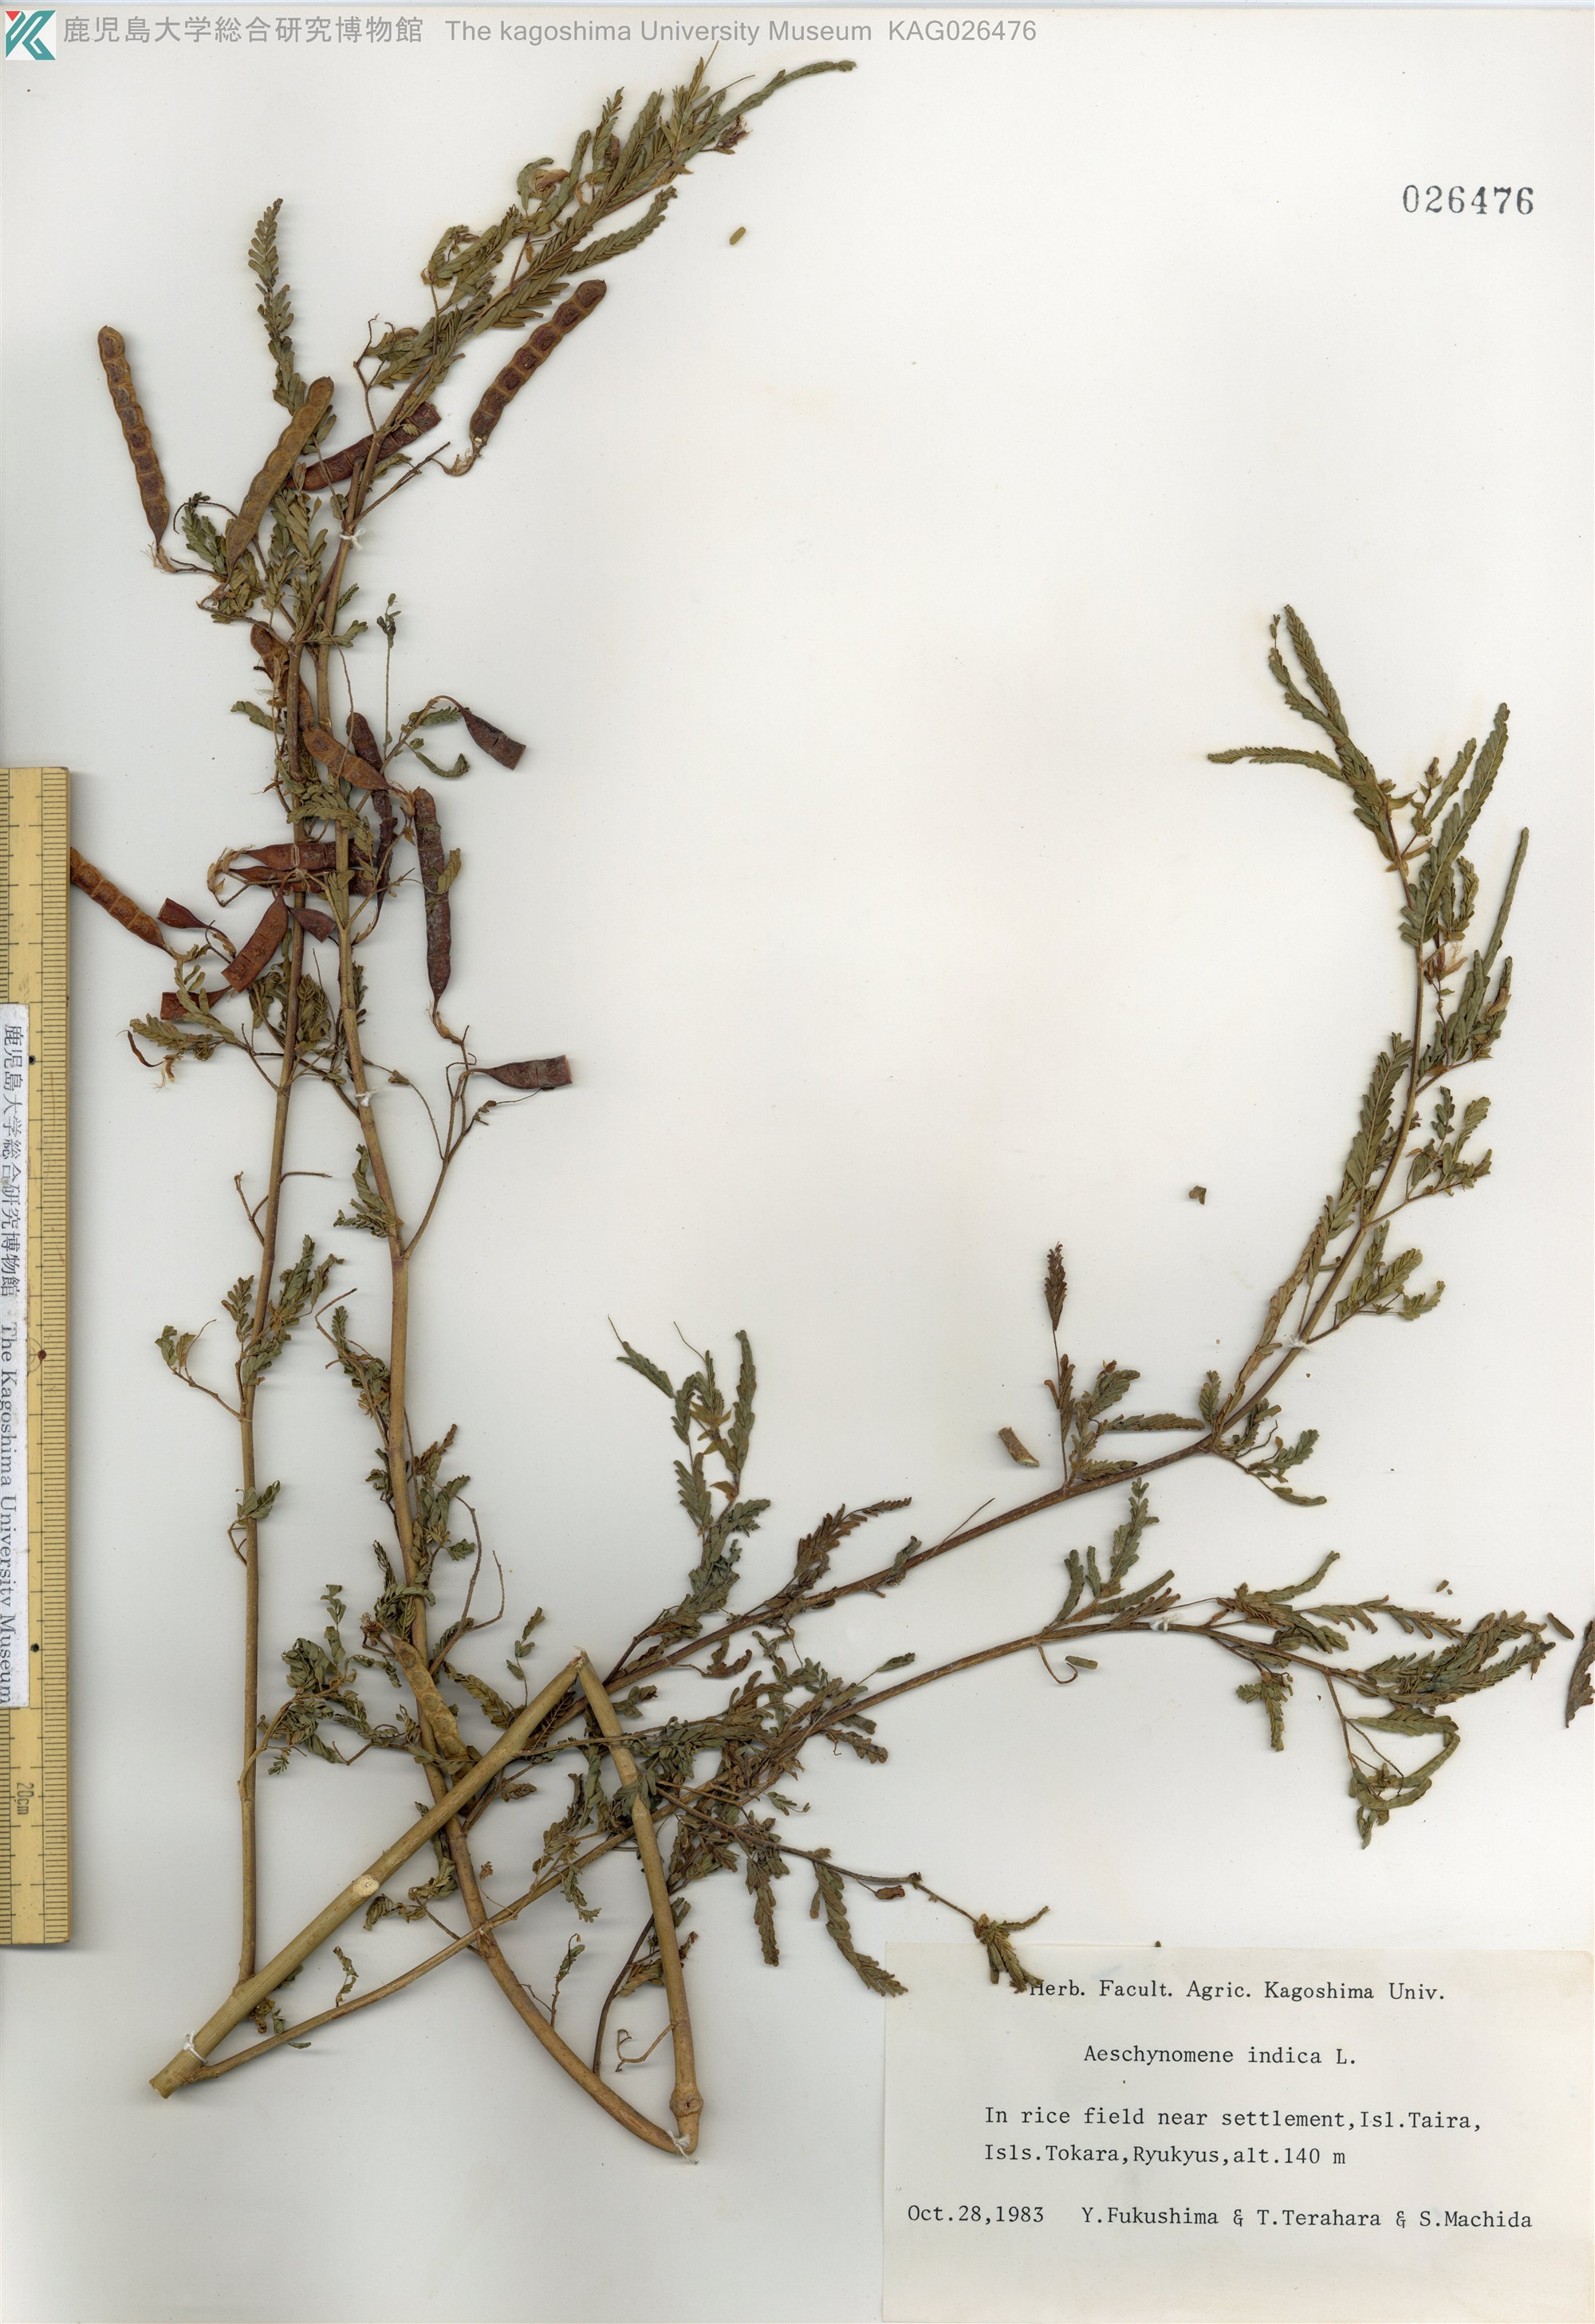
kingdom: Plantae
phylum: Tracheophyta
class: Magnoliopsida
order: Fabales
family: Fabaceae
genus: Aeschynomene
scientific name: Aeschynomene indica
